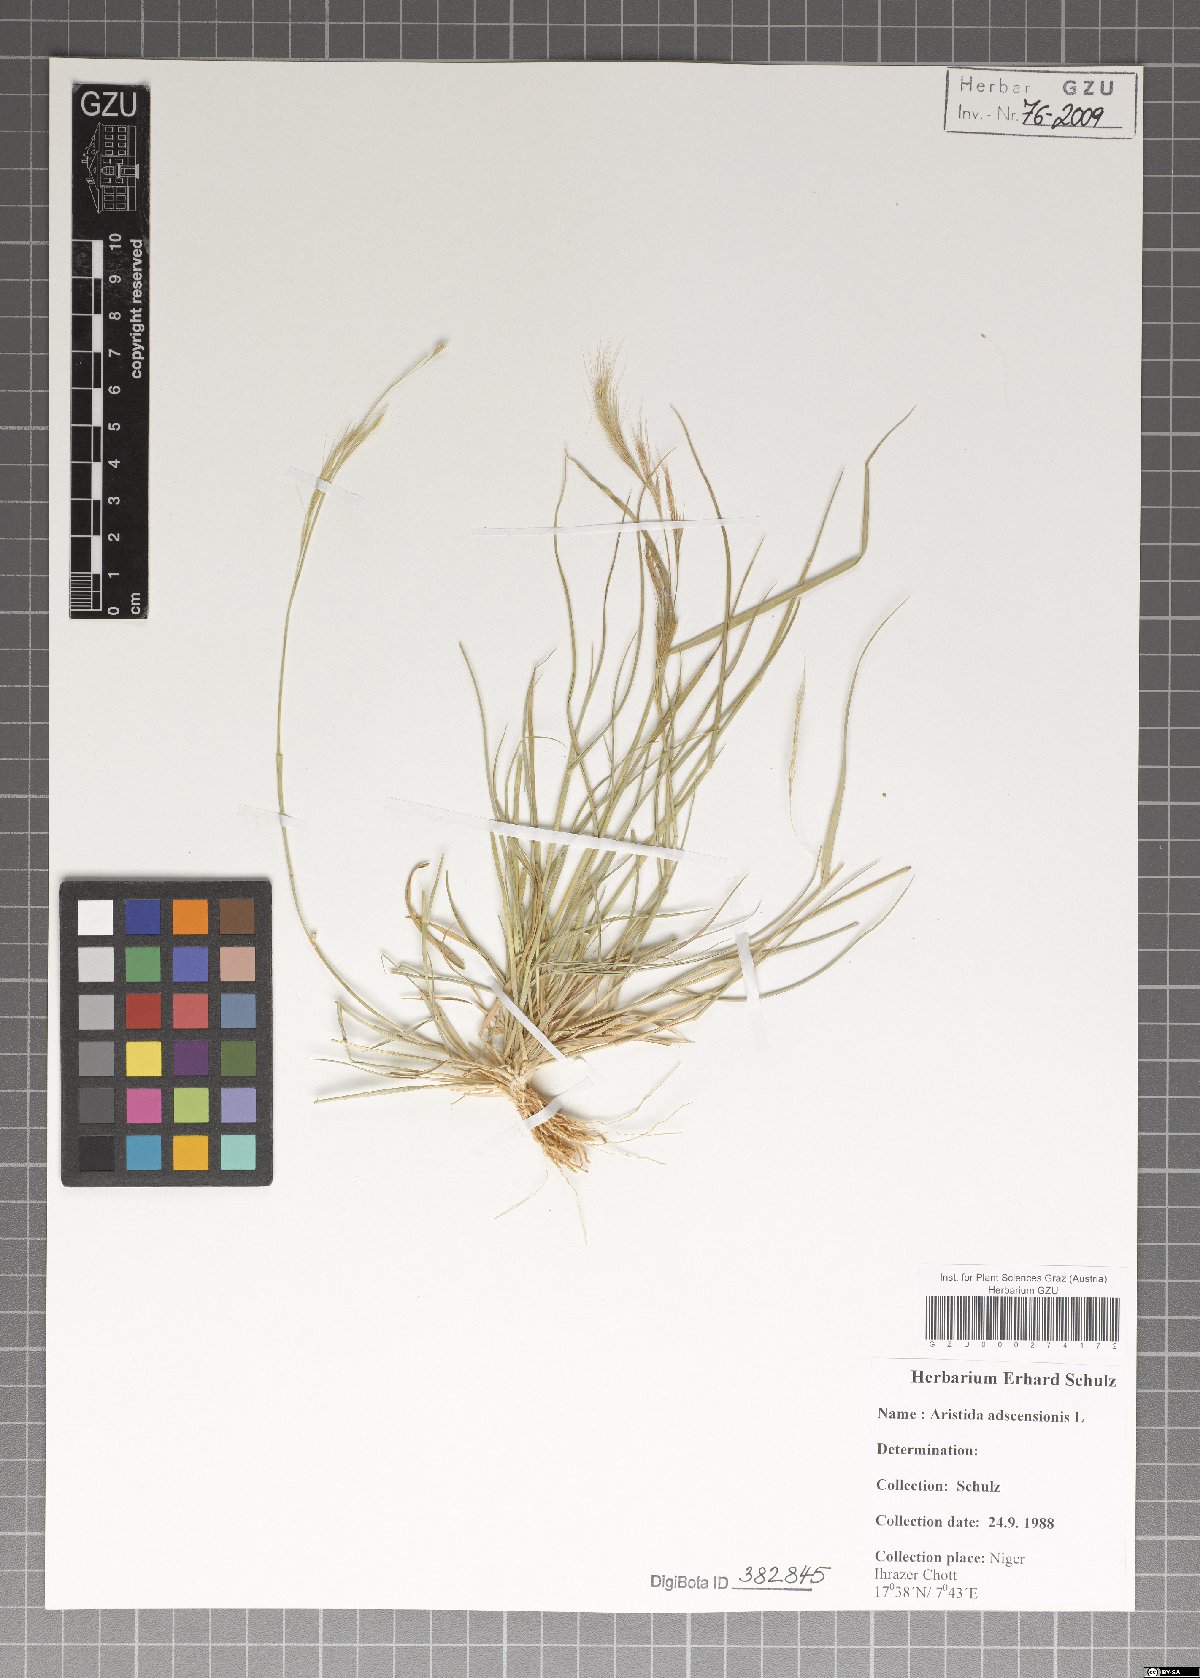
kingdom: Plantae
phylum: Tracheophyta
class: Liliopsida
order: Poales
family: Poaceae
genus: Aristida
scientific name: Aristida adscensionis
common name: Sixweeks threeawn
